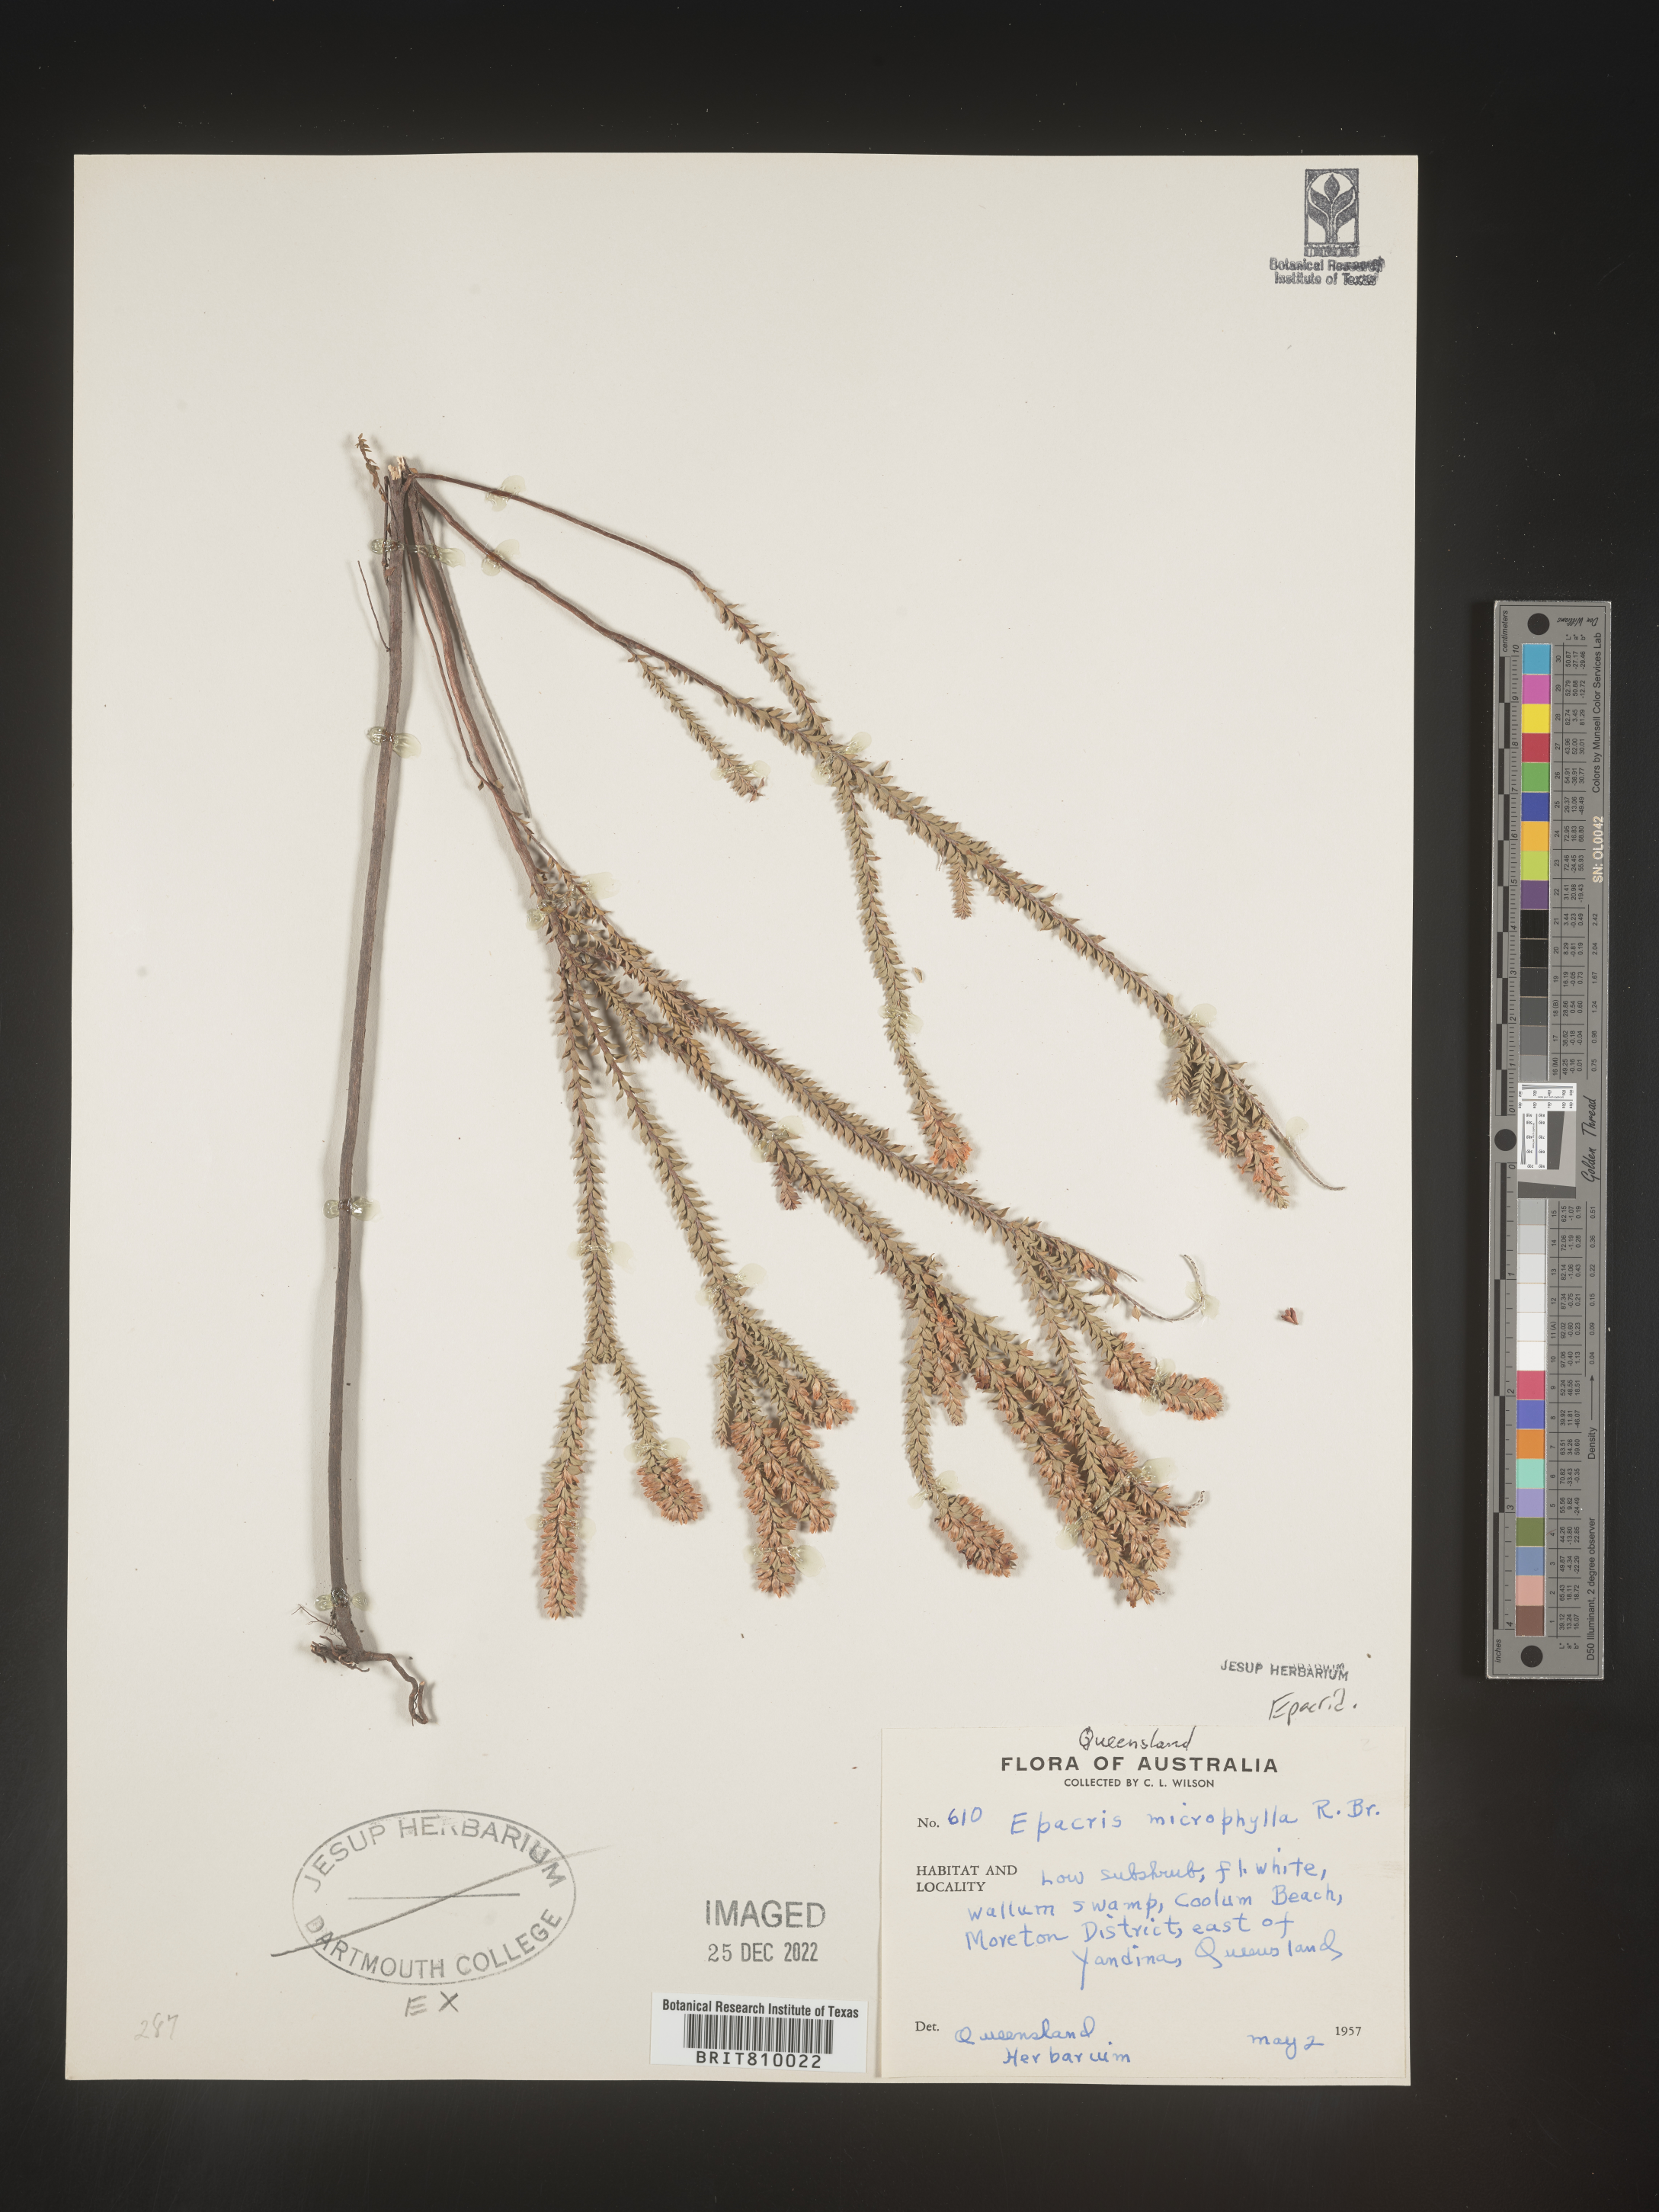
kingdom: Plantae
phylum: Tracheophyta
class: Magnoliopsida
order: Ericales
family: Ericaceae
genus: Epacris
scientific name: Epacris
